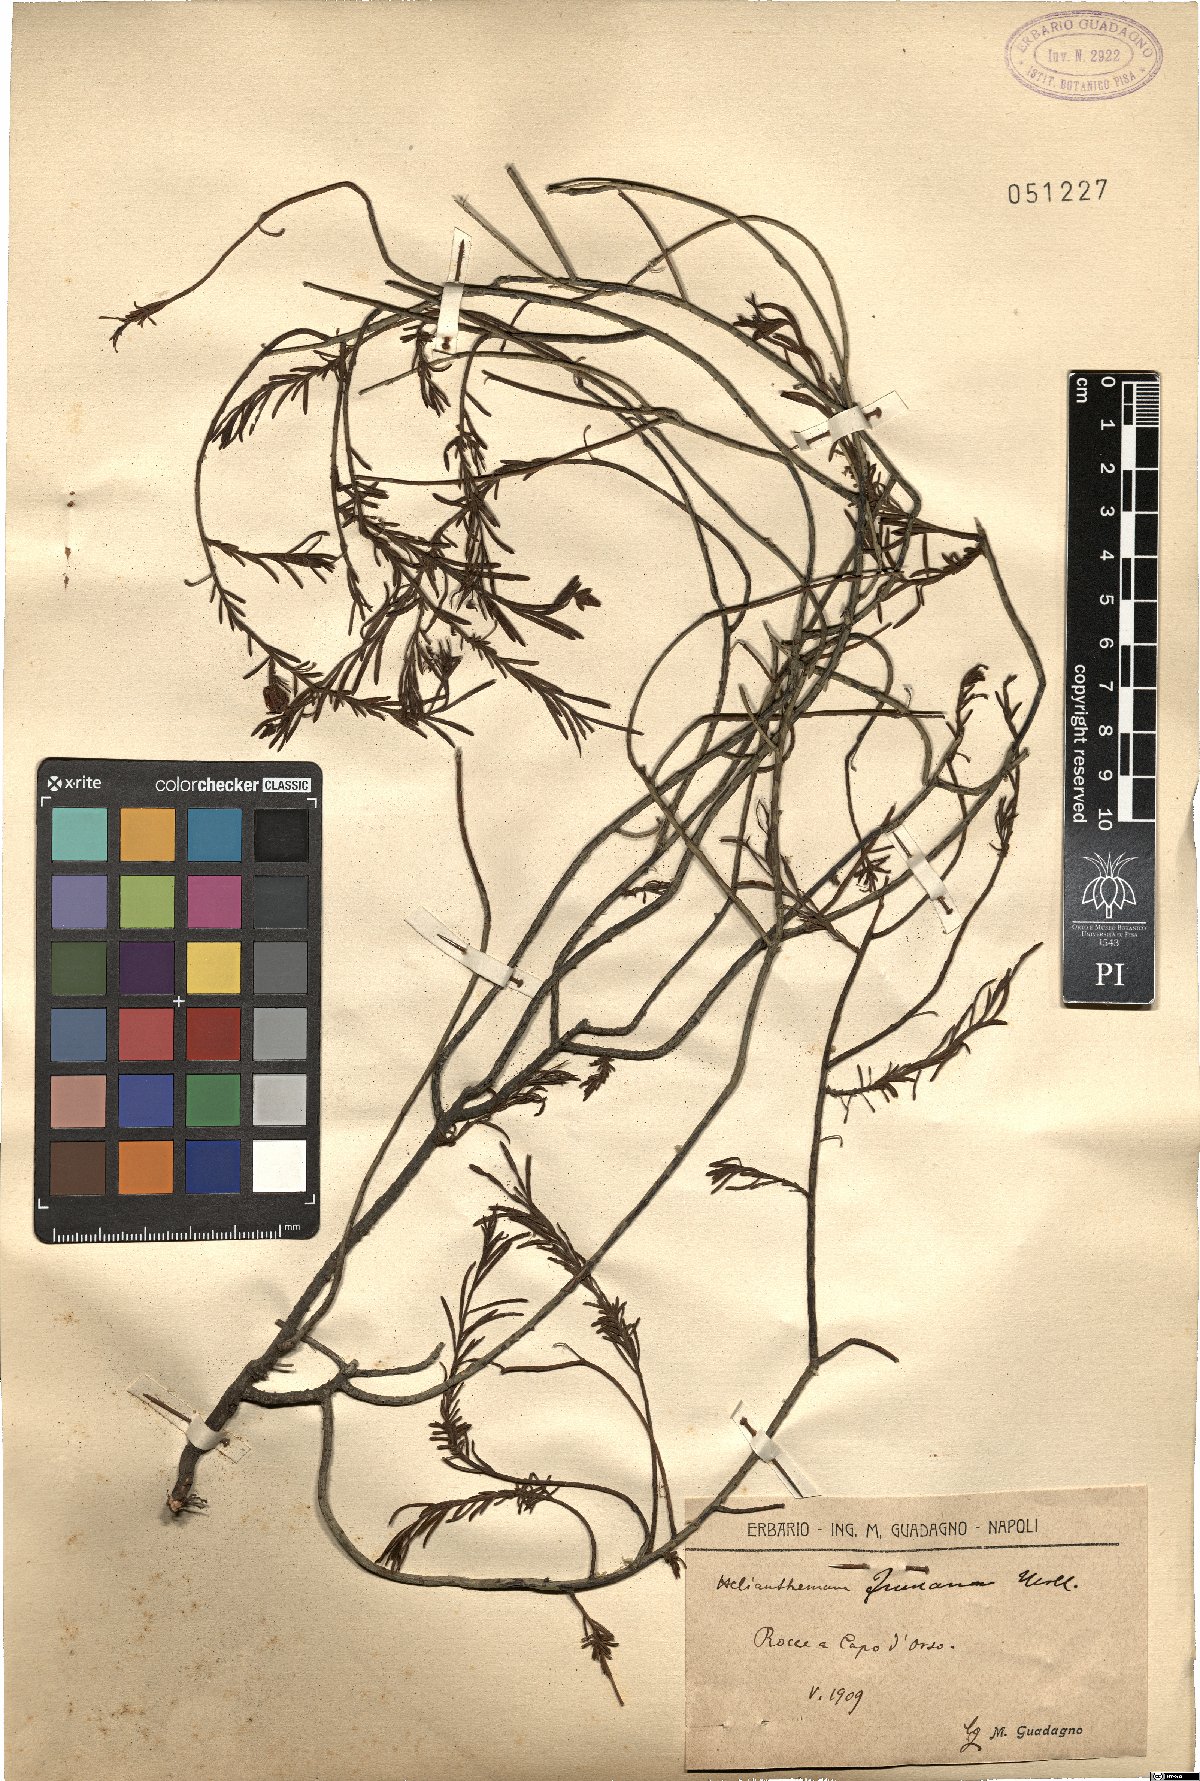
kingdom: Plantae
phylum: Tracheophyta
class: Magnoliopsida
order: Malvales
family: Cistaceae
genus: Fumana
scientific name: Fumana procumbens
